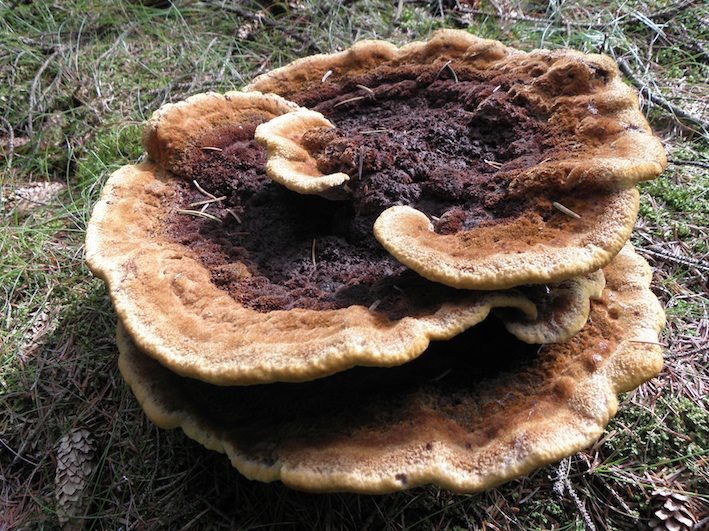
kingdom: Fungi
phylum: Basidiomycota
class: Agaricomycetes
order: Polyporales
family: Laetiporaceae
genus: Phaeolus
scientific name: Phaeolus schweinitzii
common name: brunporesvamp
